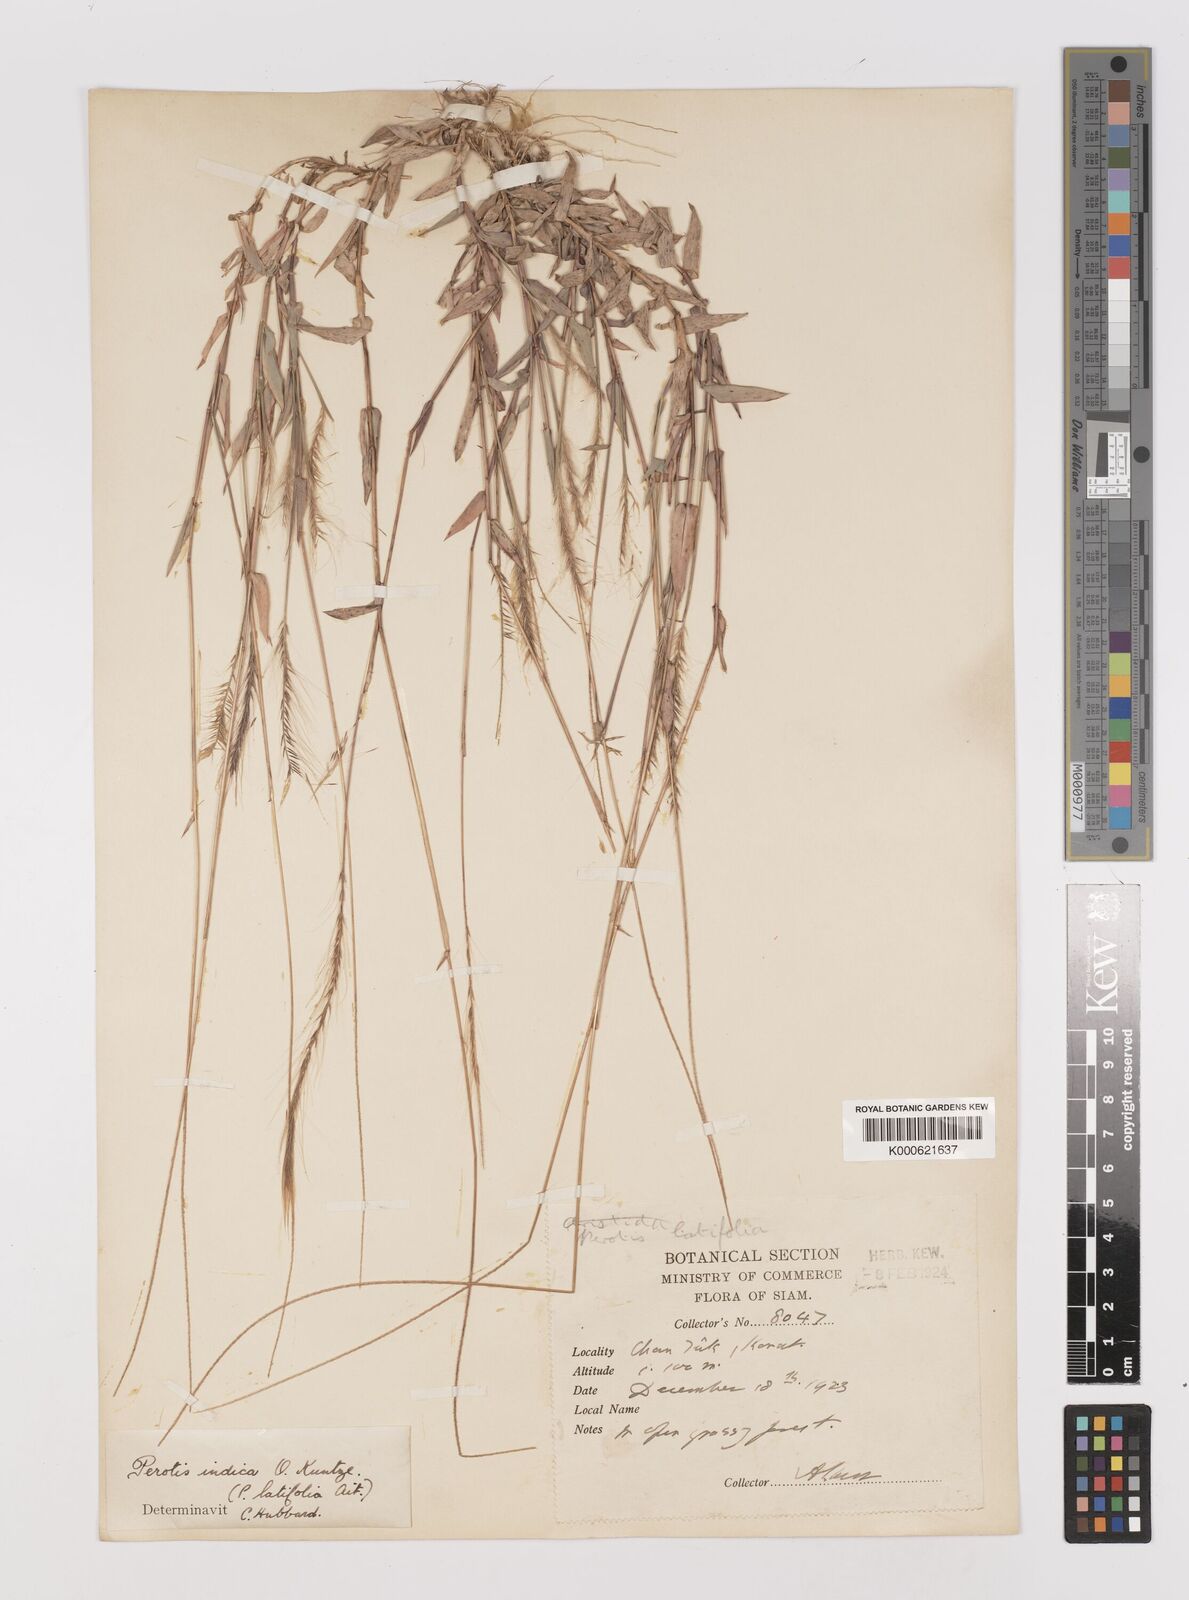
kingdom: Plantae
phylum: Tracheophyta
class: Liliopsida
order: Poales
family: Poaceae
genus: Perotis
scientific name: Perotis hordeiformis
